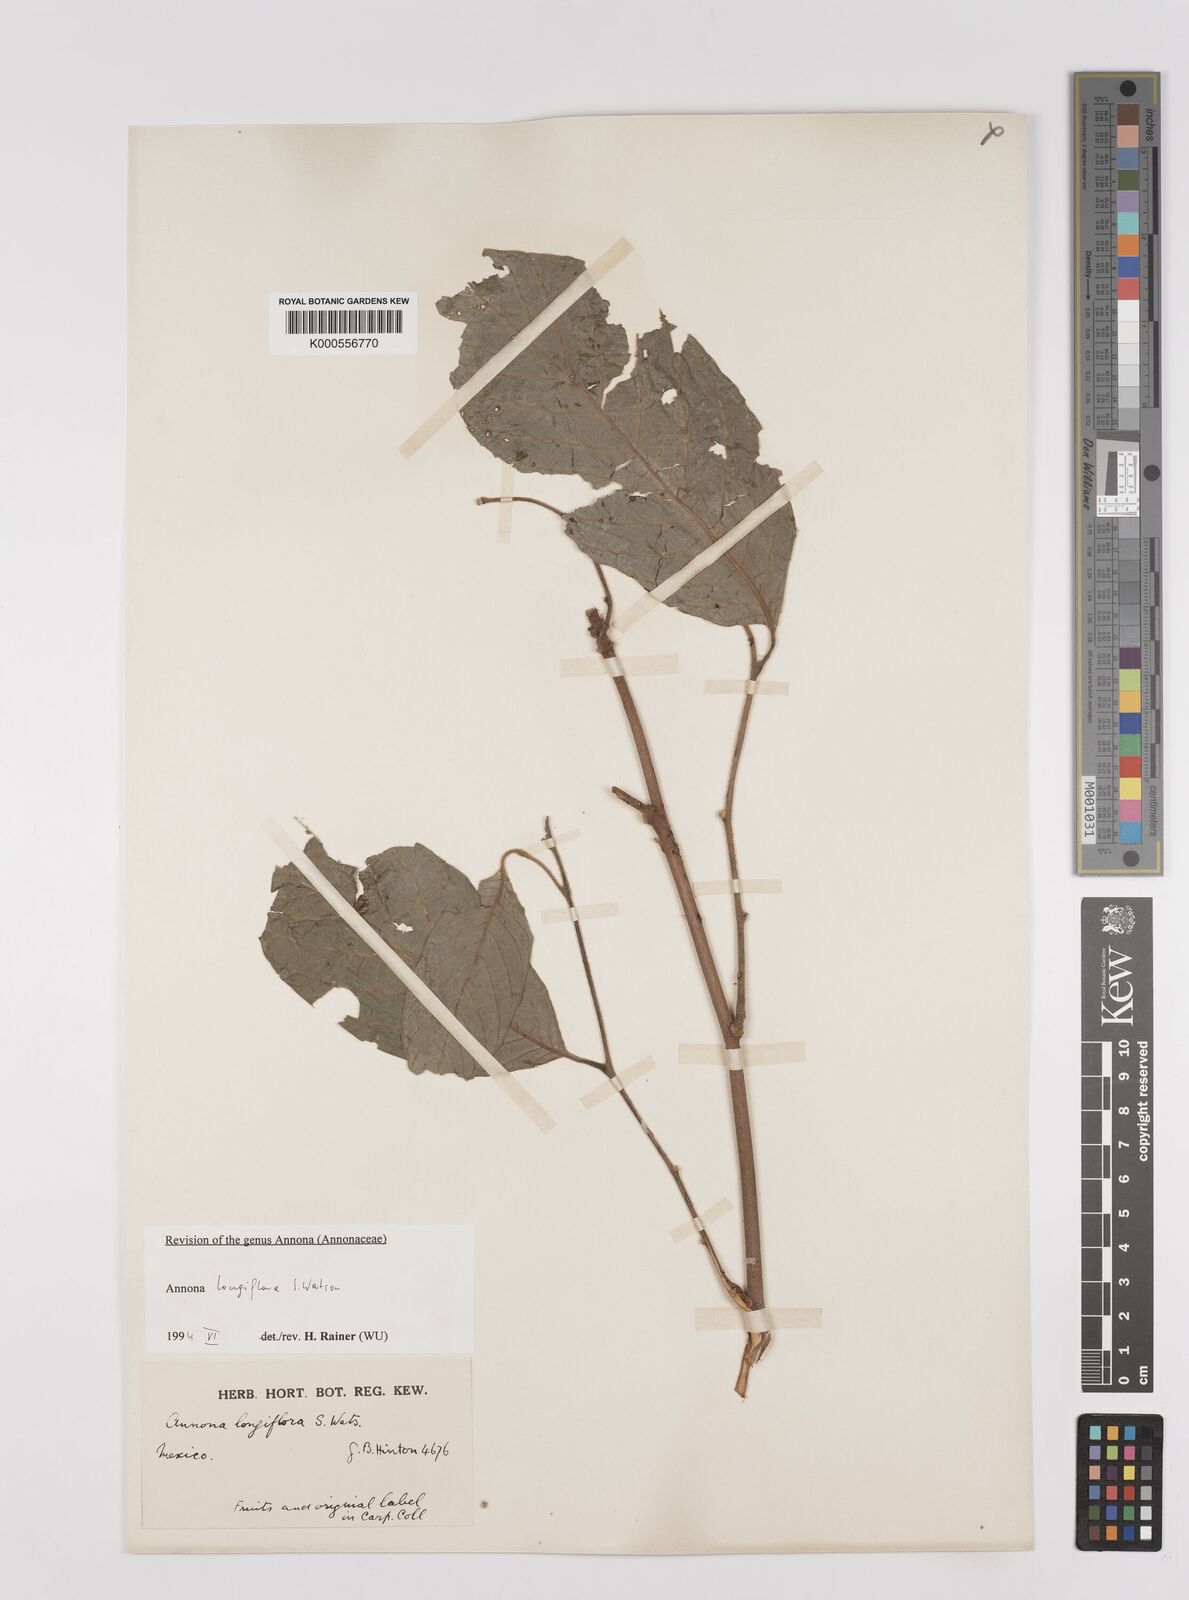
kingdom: Plantae
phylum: Tracheophyta
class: Magnoliopsida
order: Magnoliales
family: Annonaceae
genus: Annona
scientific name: Annona longiflora
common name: Wild cherimoya of jalisco
